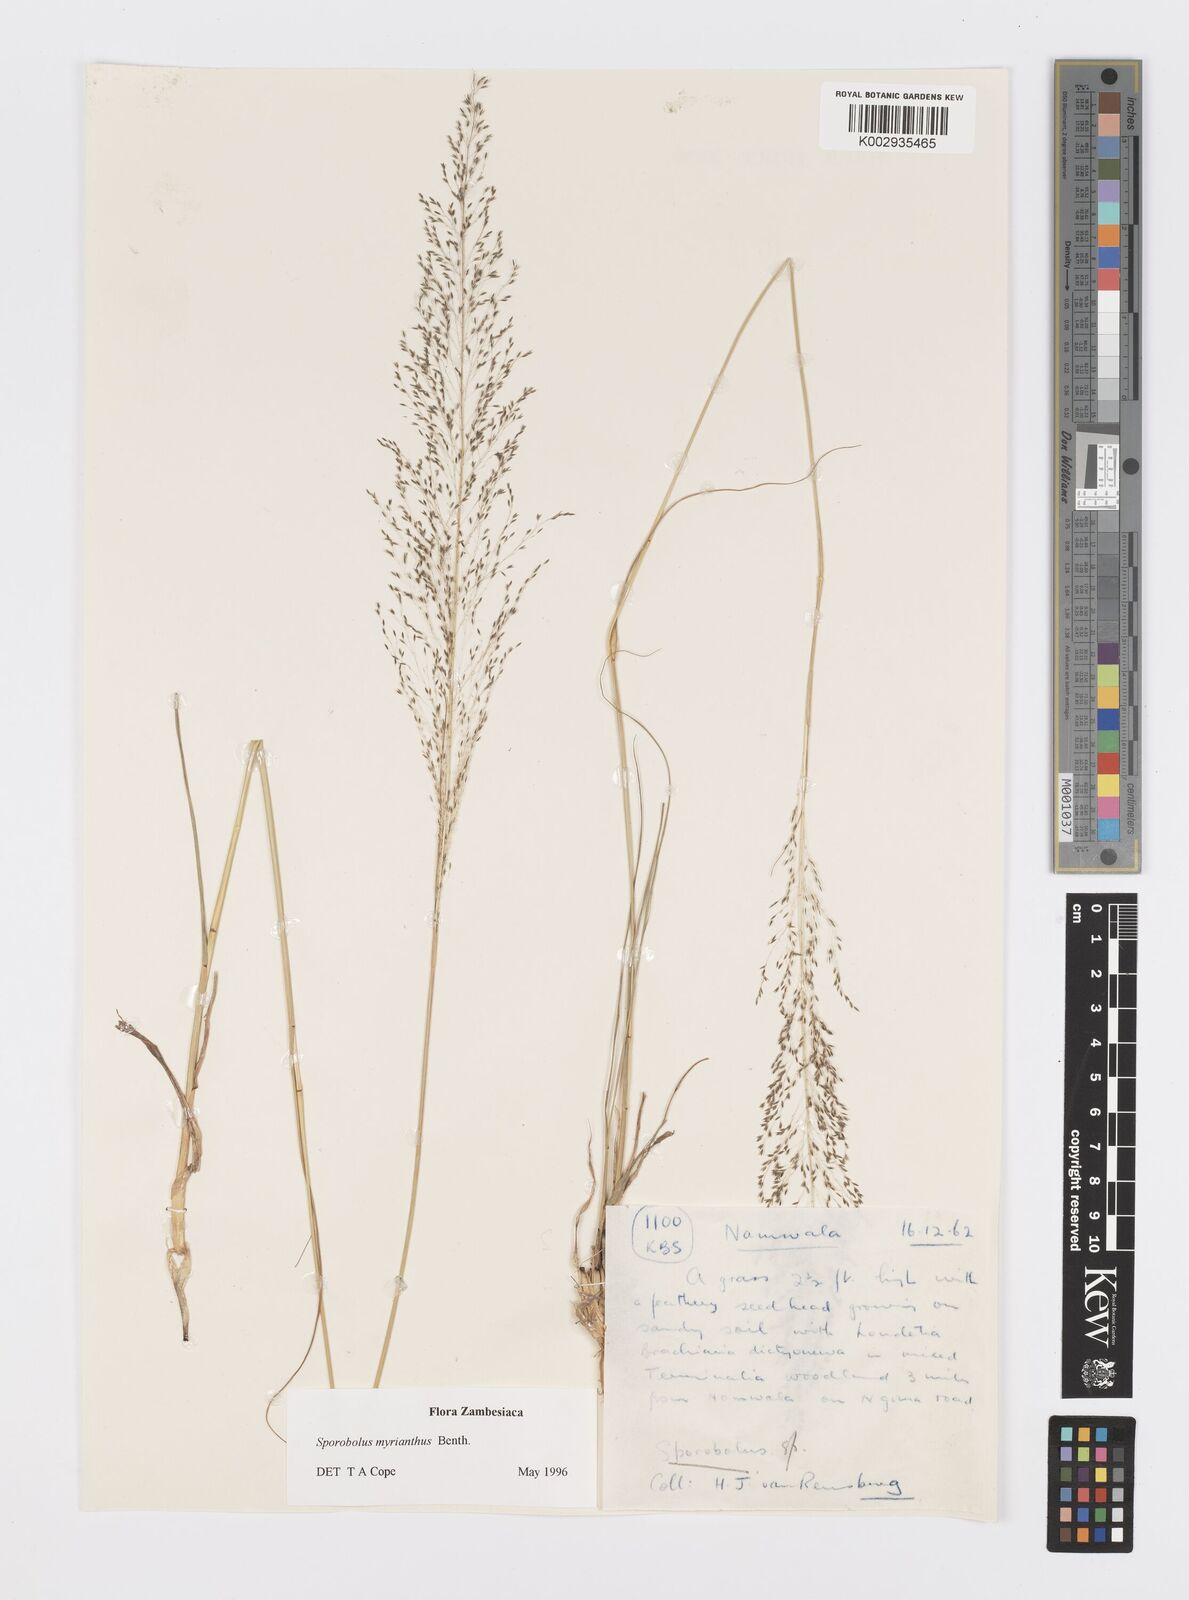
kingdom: Plantae
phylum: Tracheophyta
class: Liliopsida
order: Poales
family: Poaceae
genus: Sporobolus
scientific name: Sporobolus myrianthus
